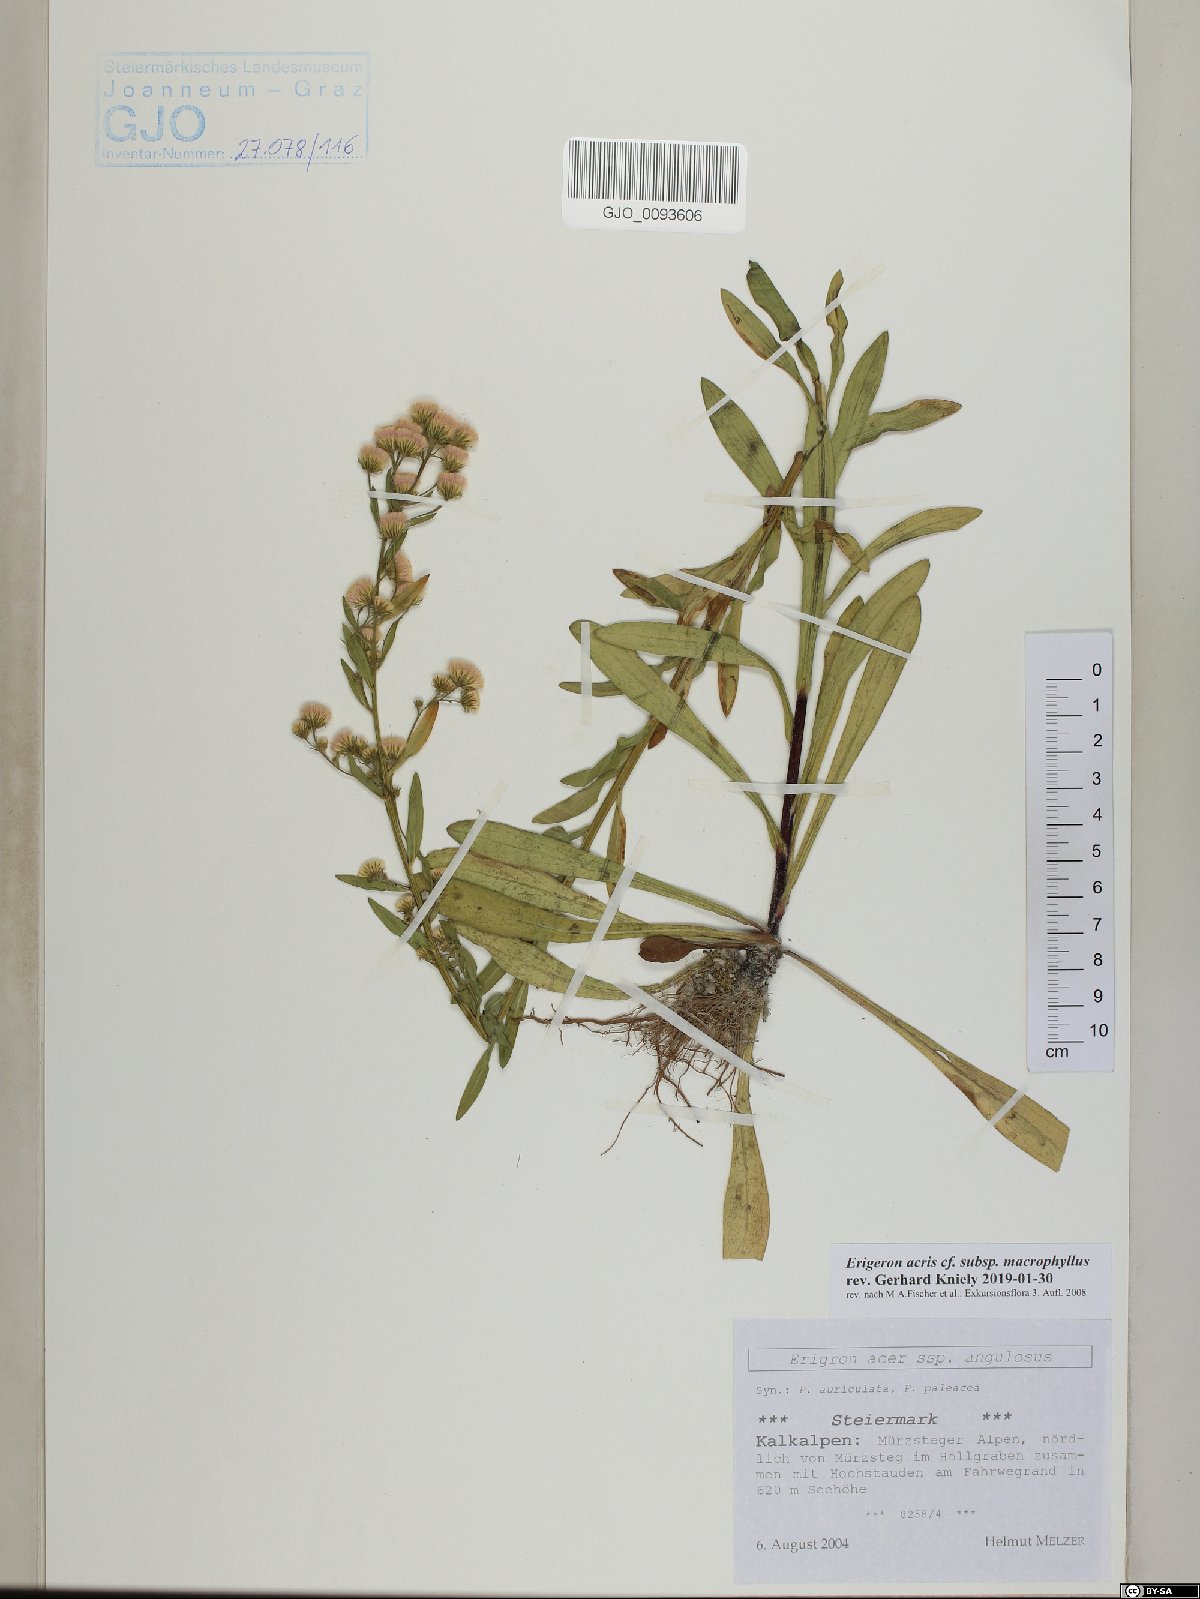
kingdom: Plantae
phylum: Tracheophyta
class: Magnoliopsida
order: Asterales
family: Asteraceae
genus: Erigeron
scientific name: Erigeron macrophyllus
